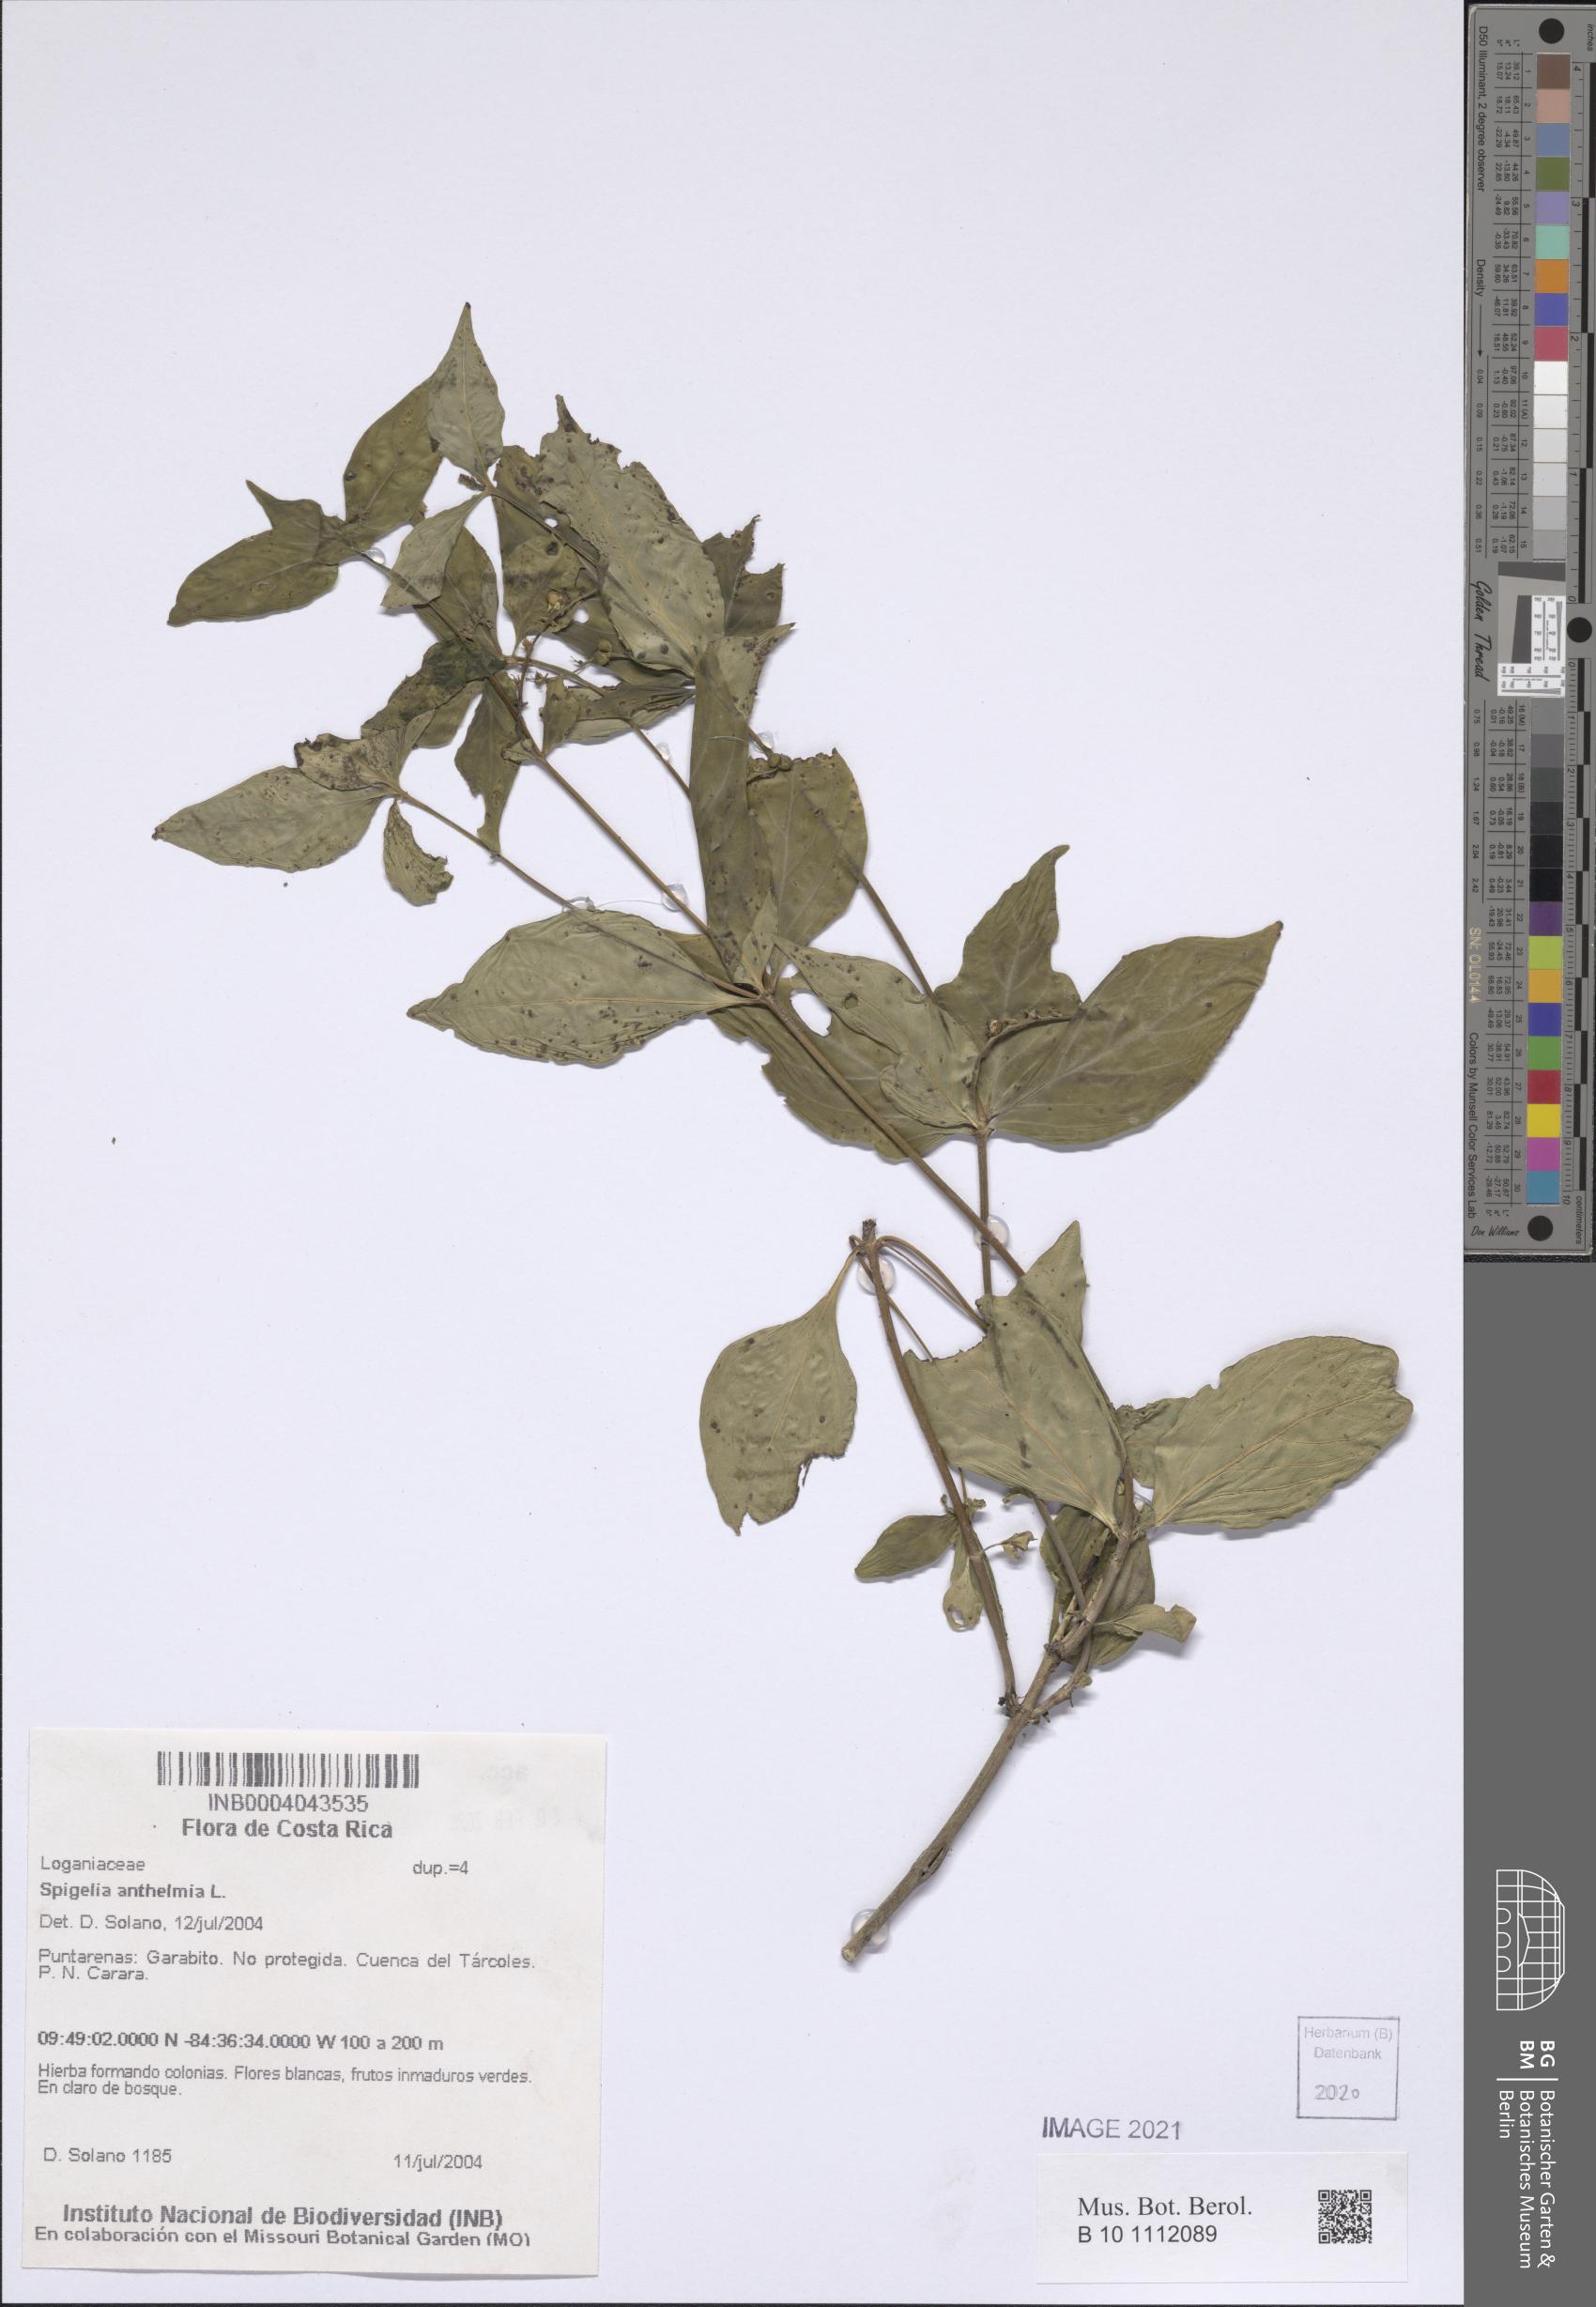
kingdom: Plantae
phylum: Tracheophyta
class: Magnoliopsida
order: Gentianales
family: Loganiaceae
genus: Spigelia
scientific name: Spigelia anthelmia
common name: West indian-pink
